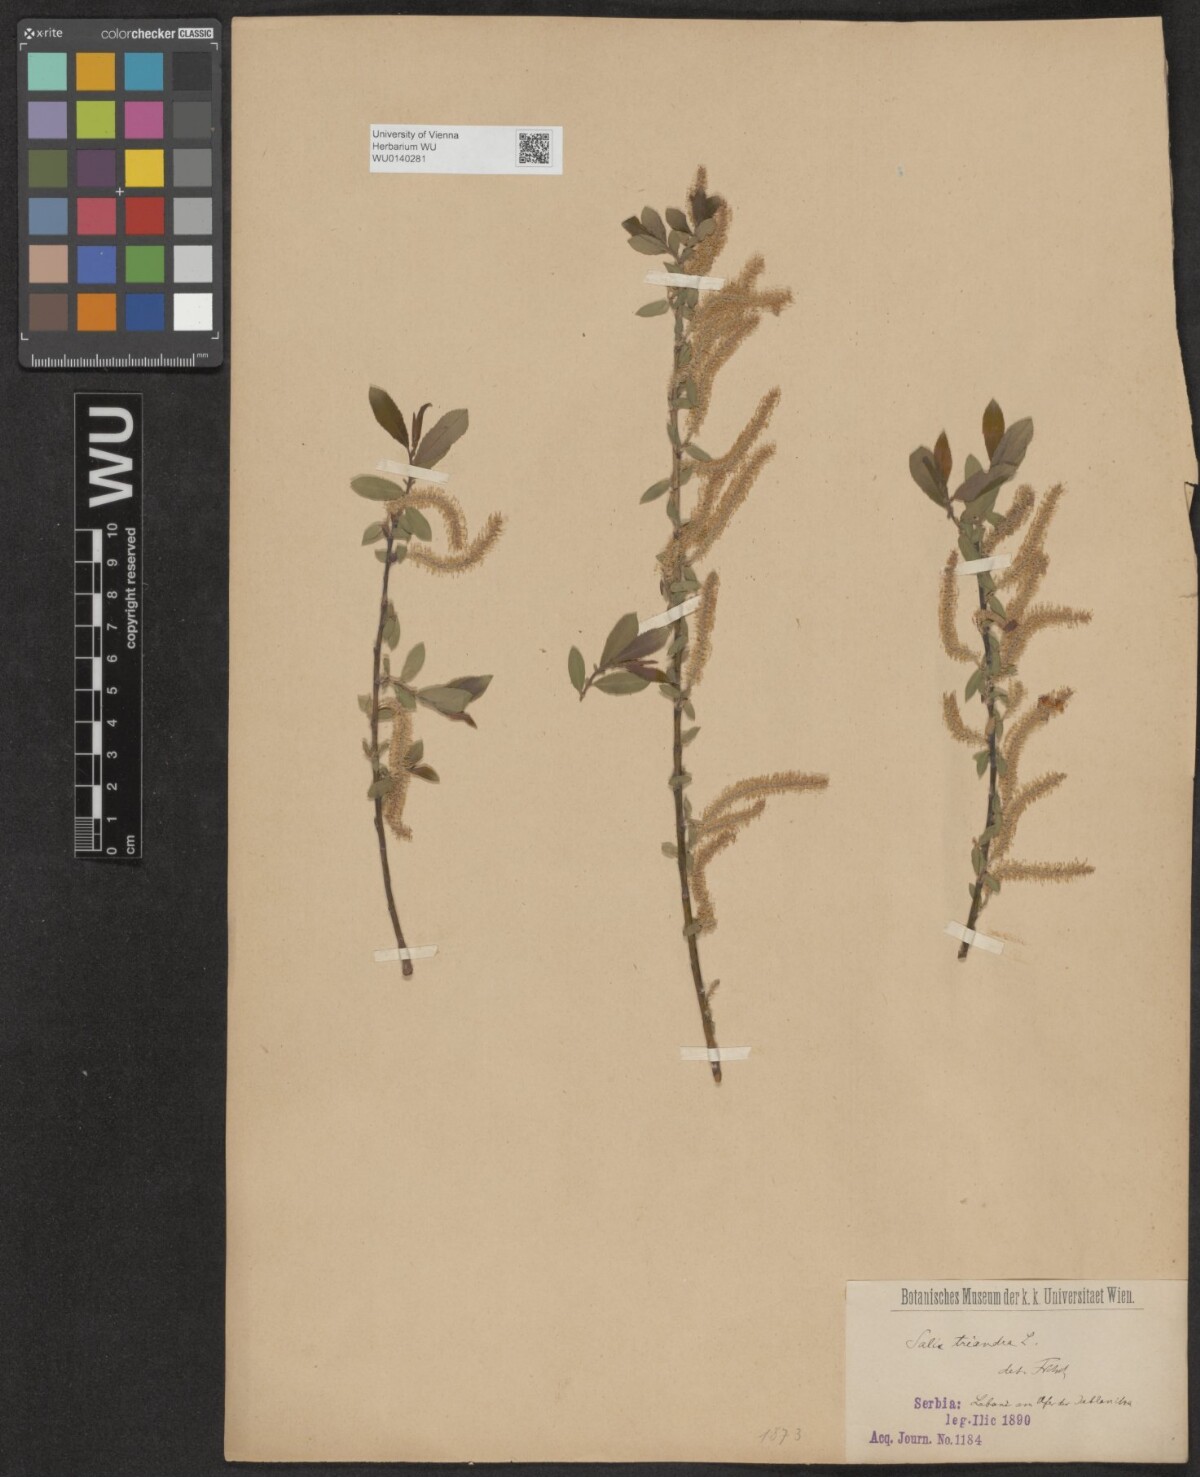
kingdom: Plantae
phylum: Tracheophyta
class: Magnoliopsida
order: Malpighiales
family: Salicaceae
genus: Salix
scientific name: Salix triandra
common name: Almond willow
